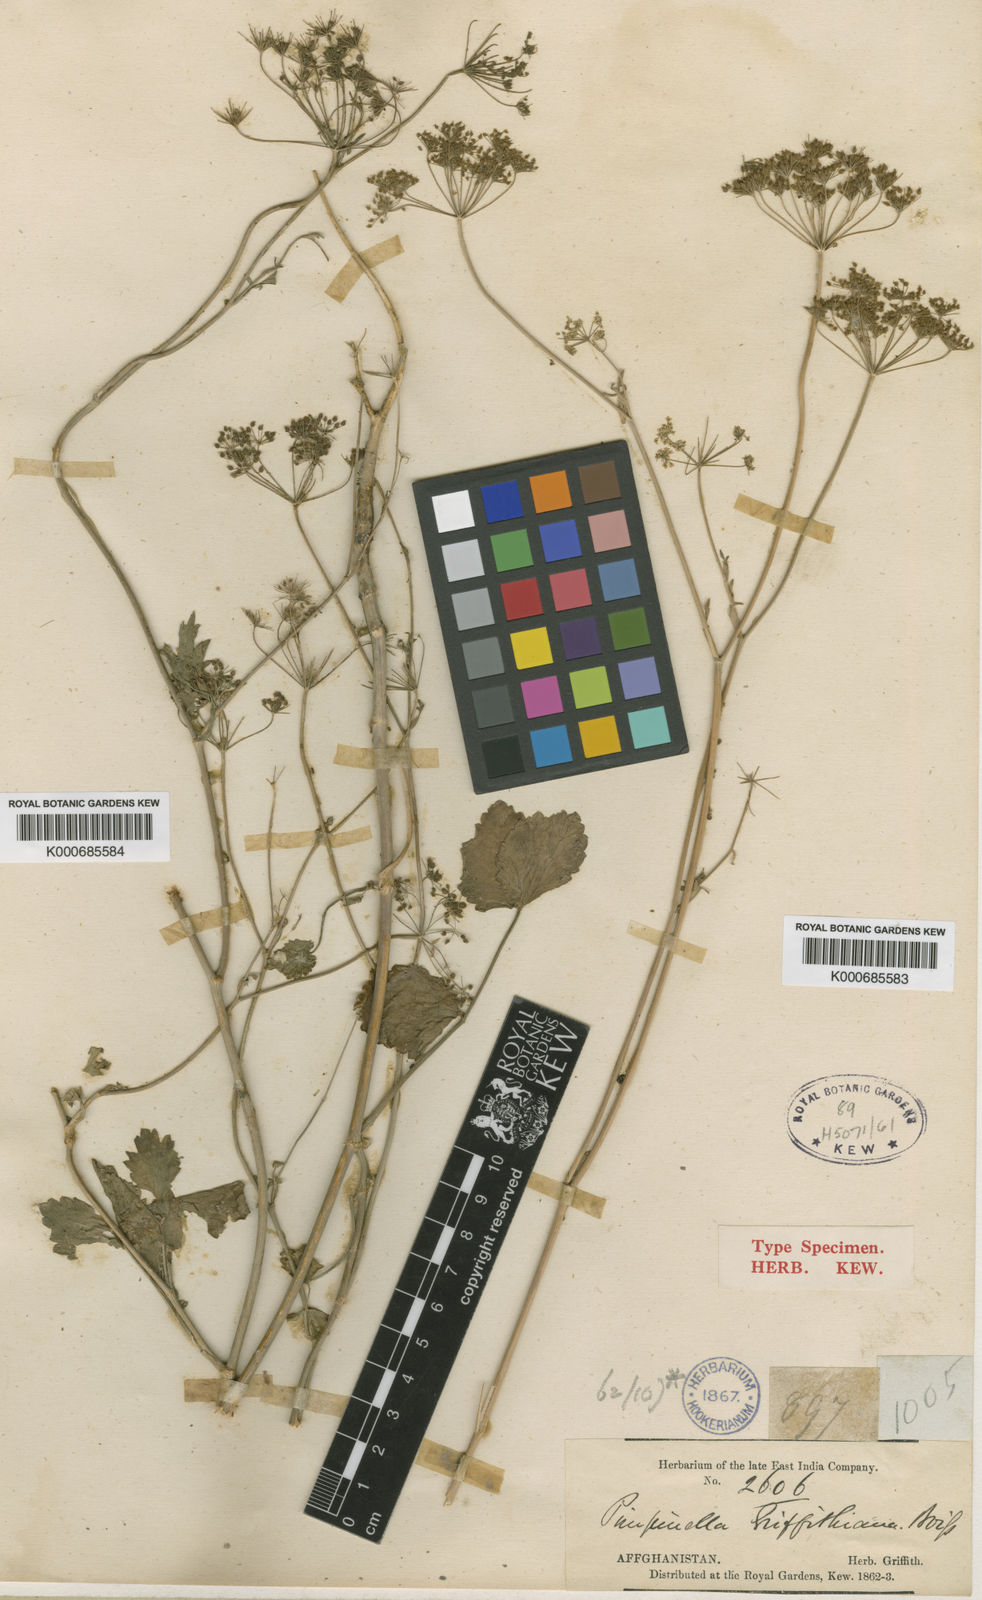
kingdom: Plantae
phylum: Tracheophyta
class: Magnoliopsida
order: Apiales
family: Apiaceae
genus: Pimpinella
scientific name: Pimpinella affinis
